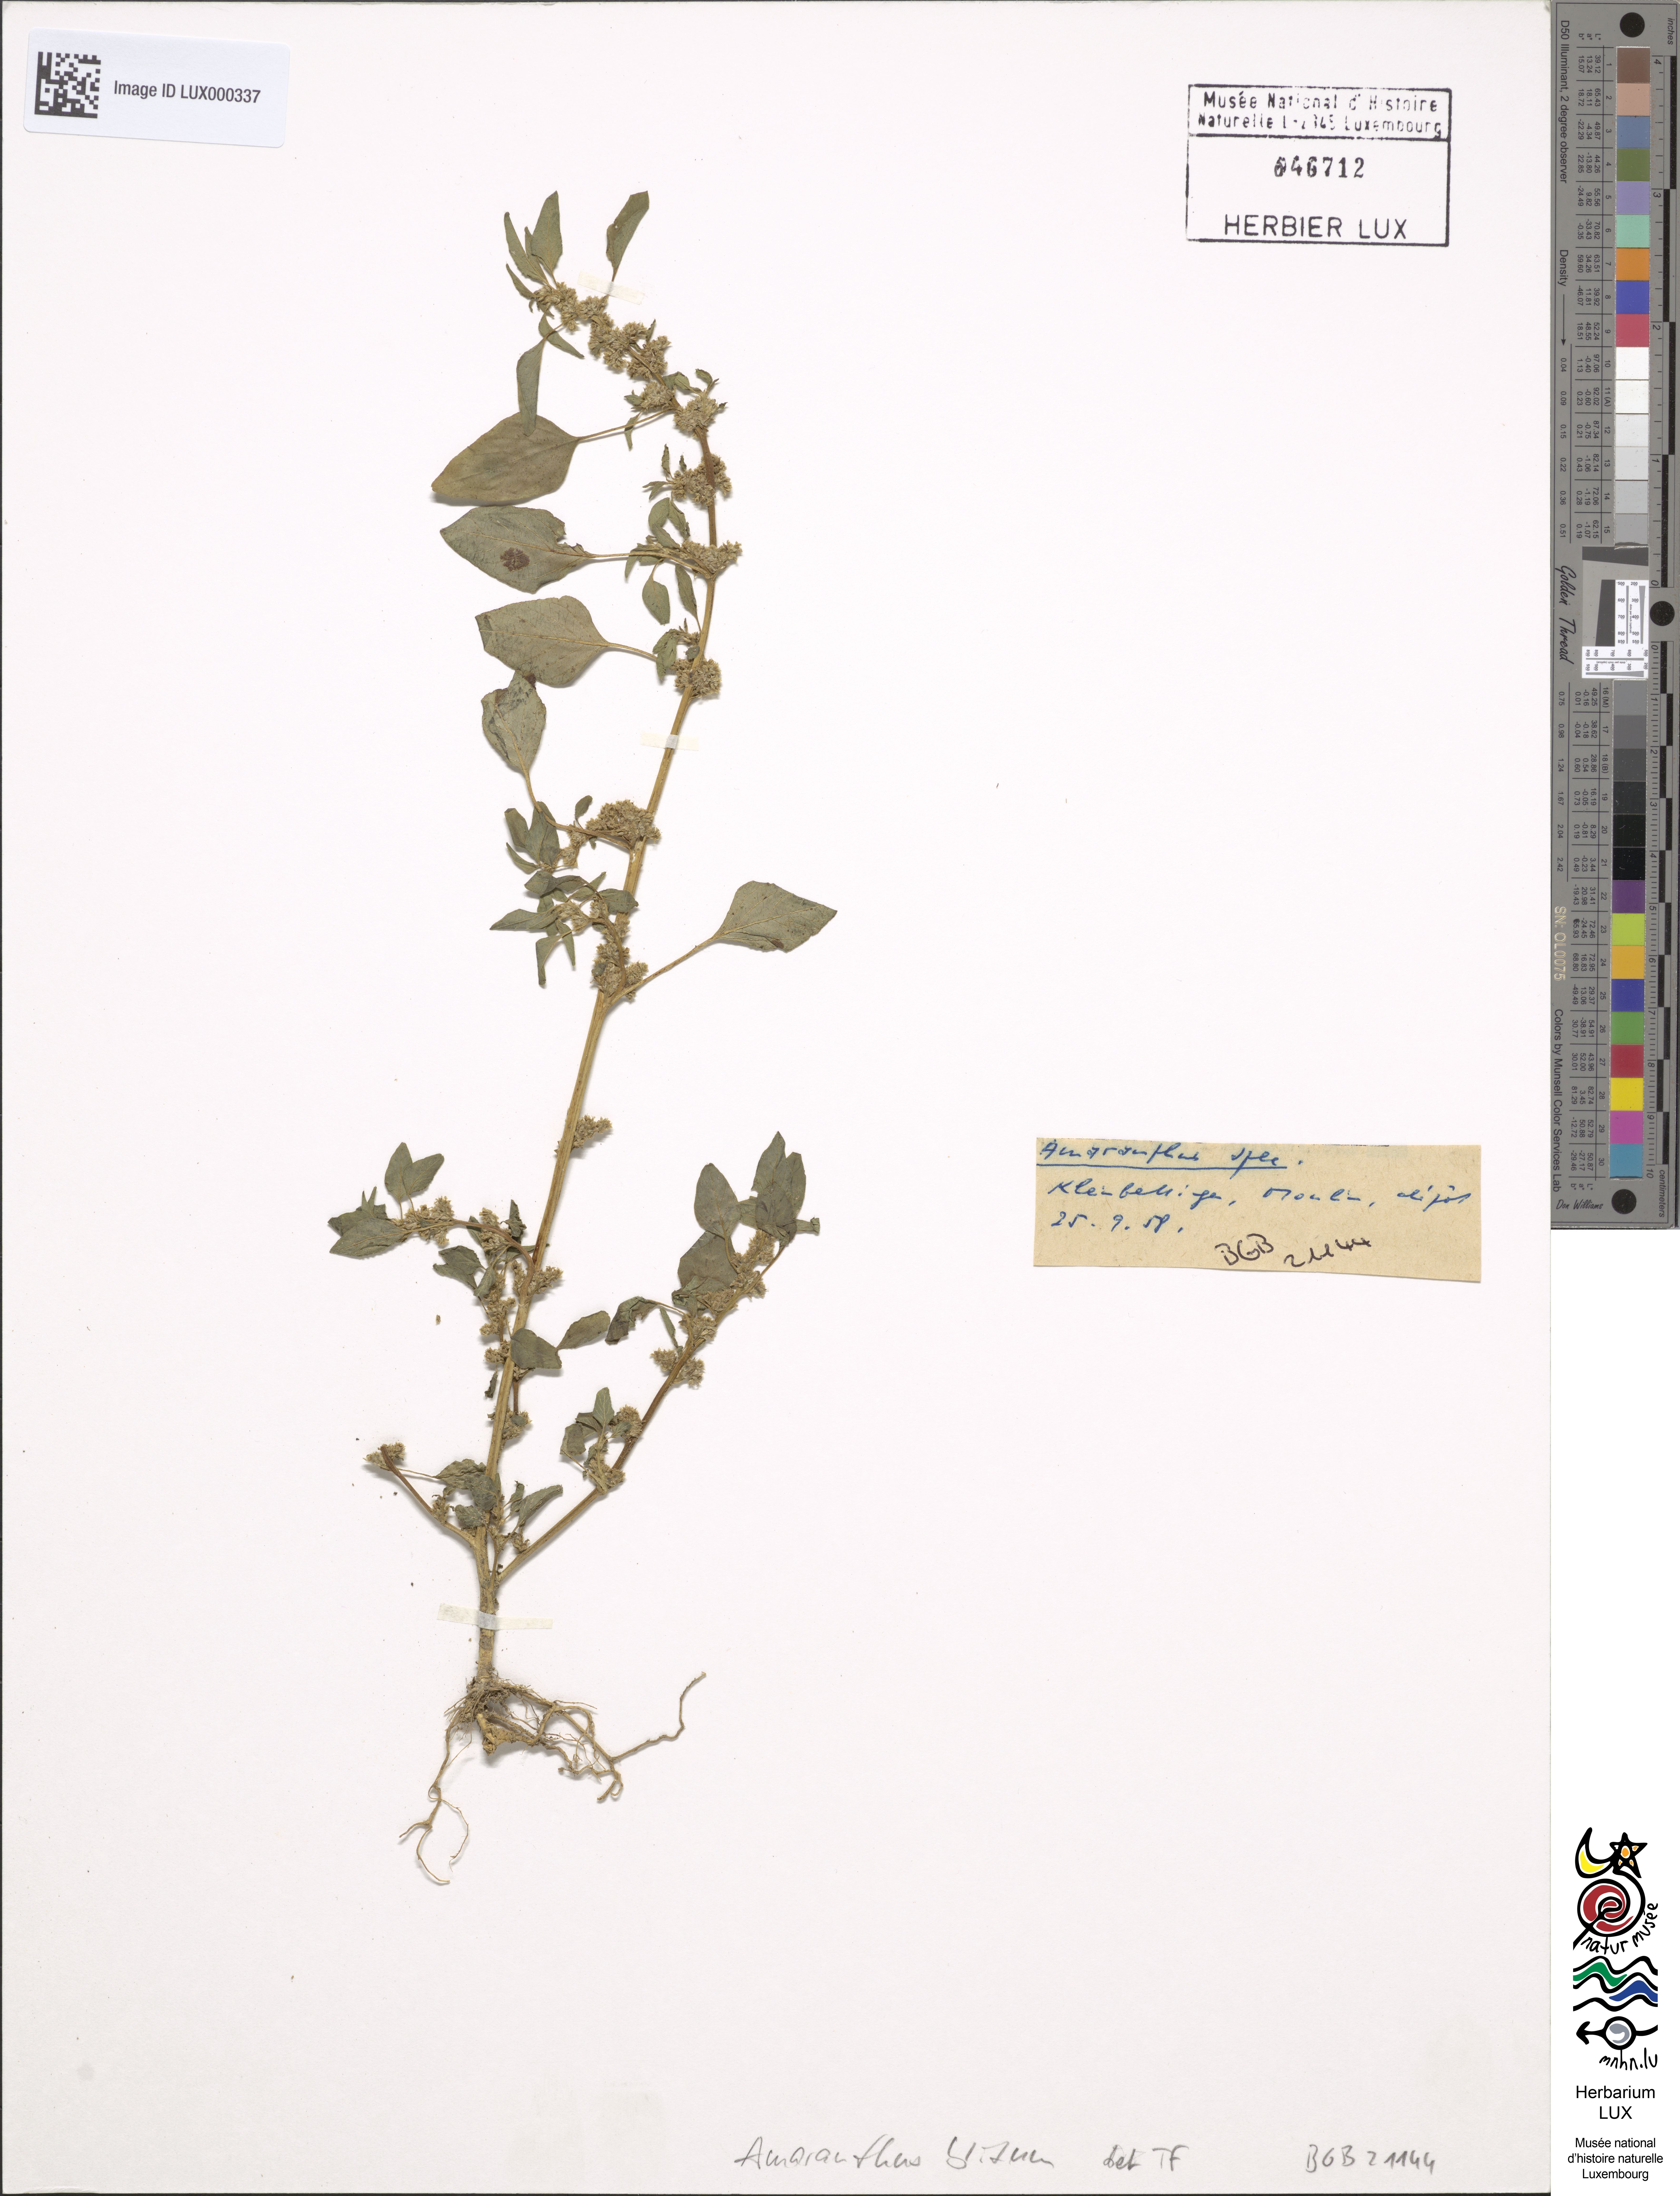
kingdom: Plantae
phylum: Tracheophyta
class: Magnoliopsida
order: Caryophyllales
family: Amaranthaceae
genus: Amaranthus
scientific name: Amaranthus blitum
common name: Purple amaranth
